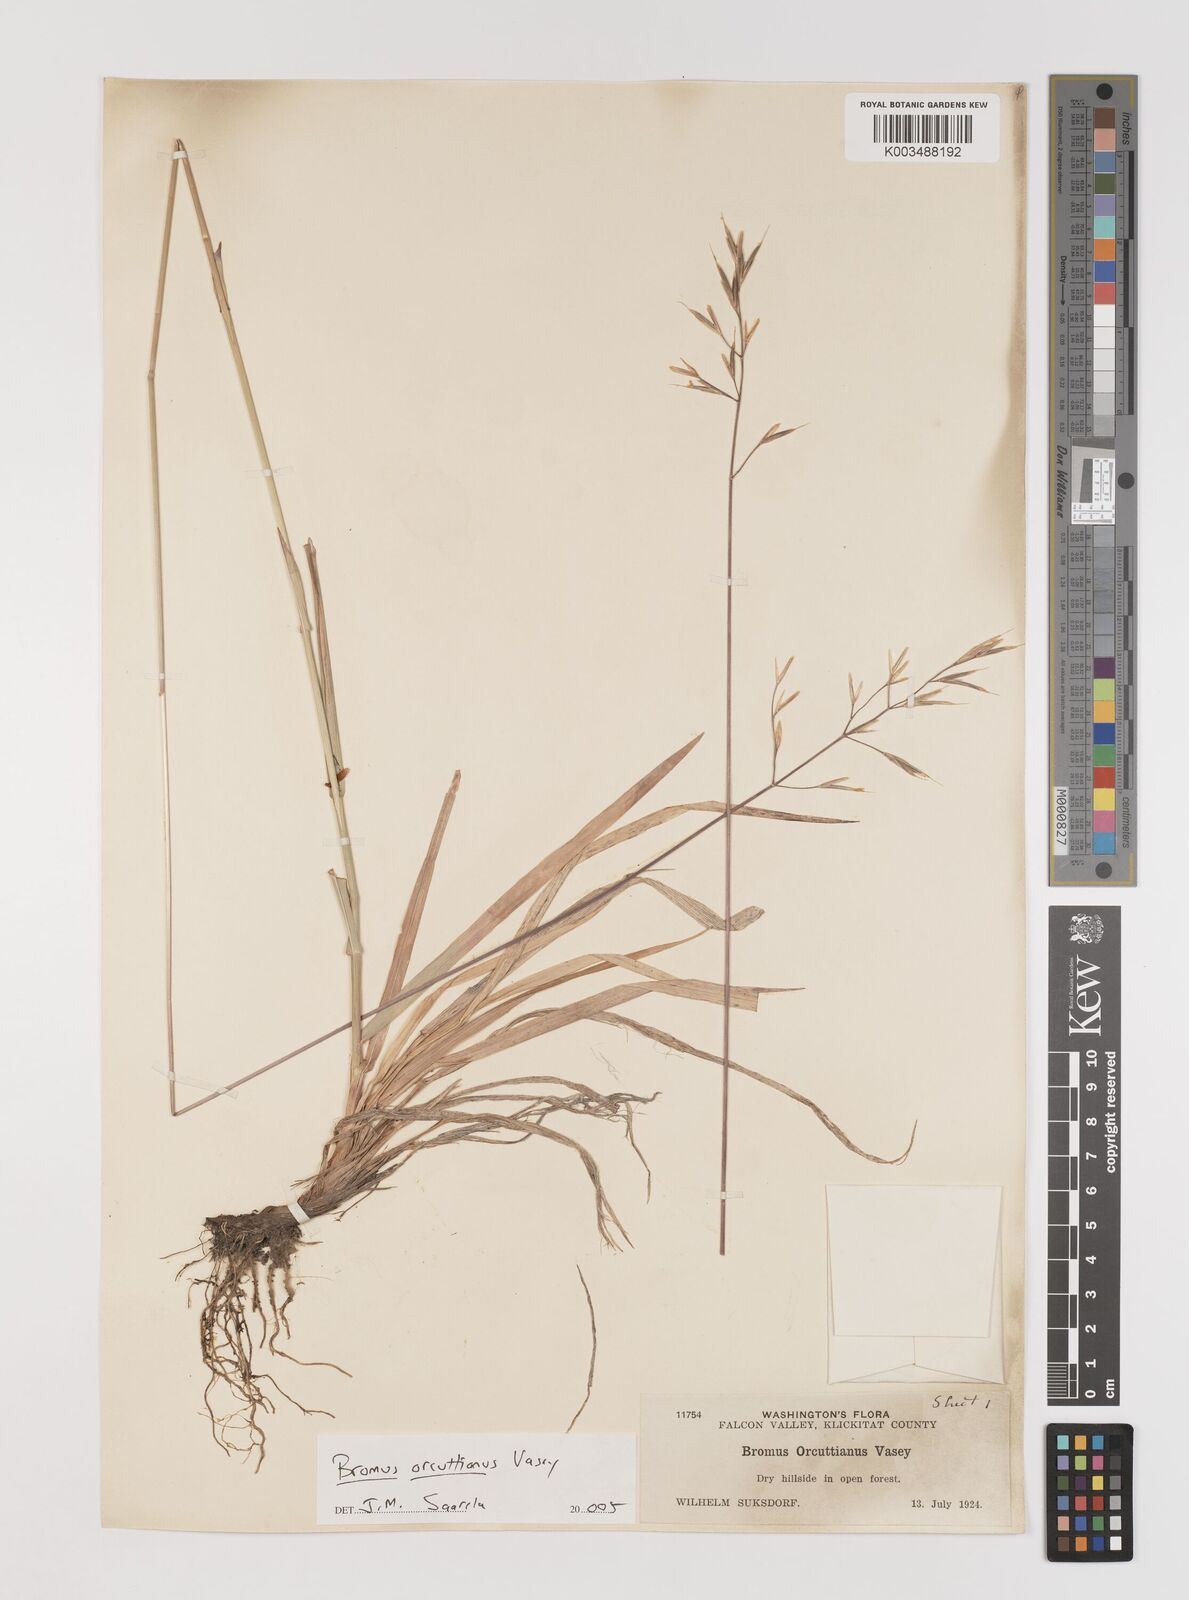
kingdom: Plantae
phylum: Tracheophyta
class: Liliopsida
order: Poales
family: Poaceae
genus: Bromus
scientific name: Bromus orcuttianus
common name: Orcutt's brome
